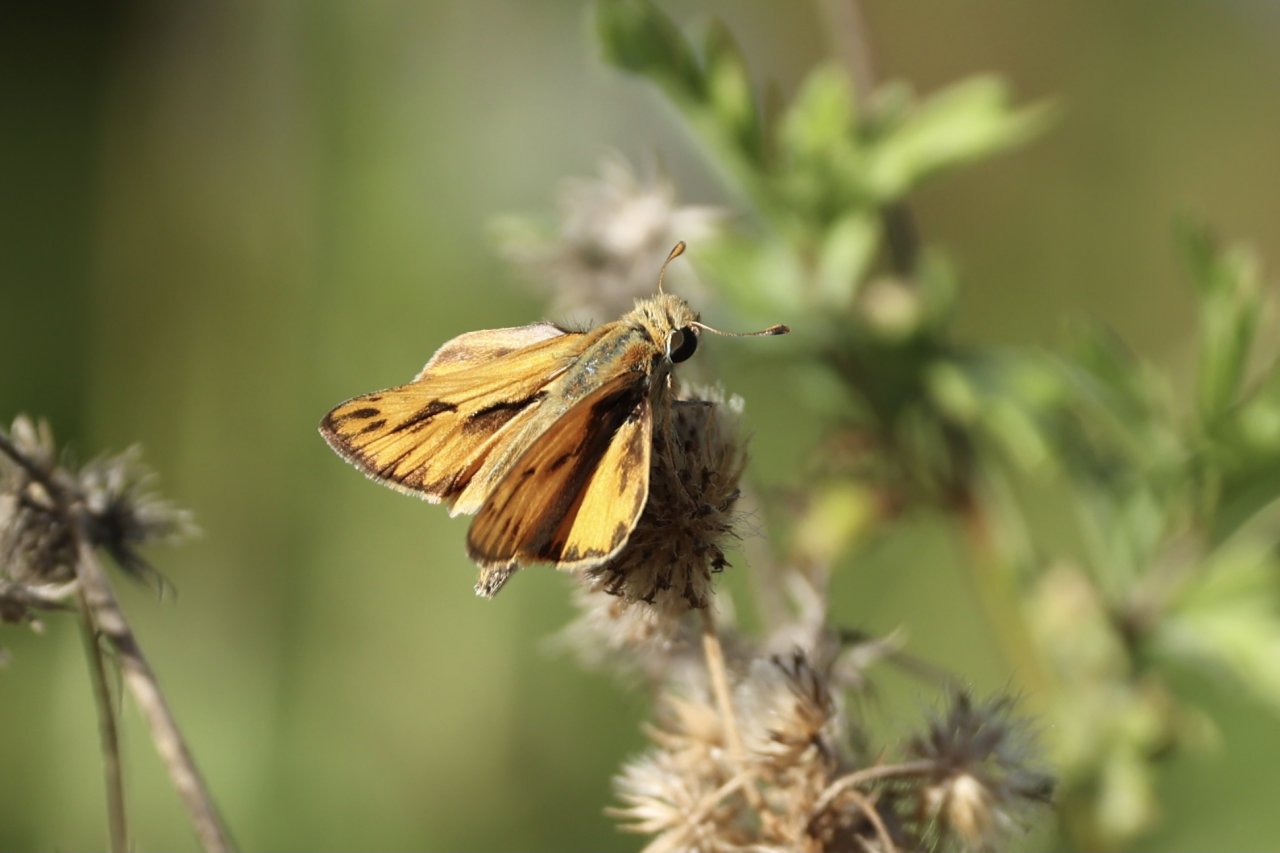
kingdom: Animalia
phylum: Arthropoda
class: Insecta
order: Lepidoptera
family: Hesperiidae
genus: Hylephila
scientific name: Hylephila phyleus
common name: Fiery Skipper
